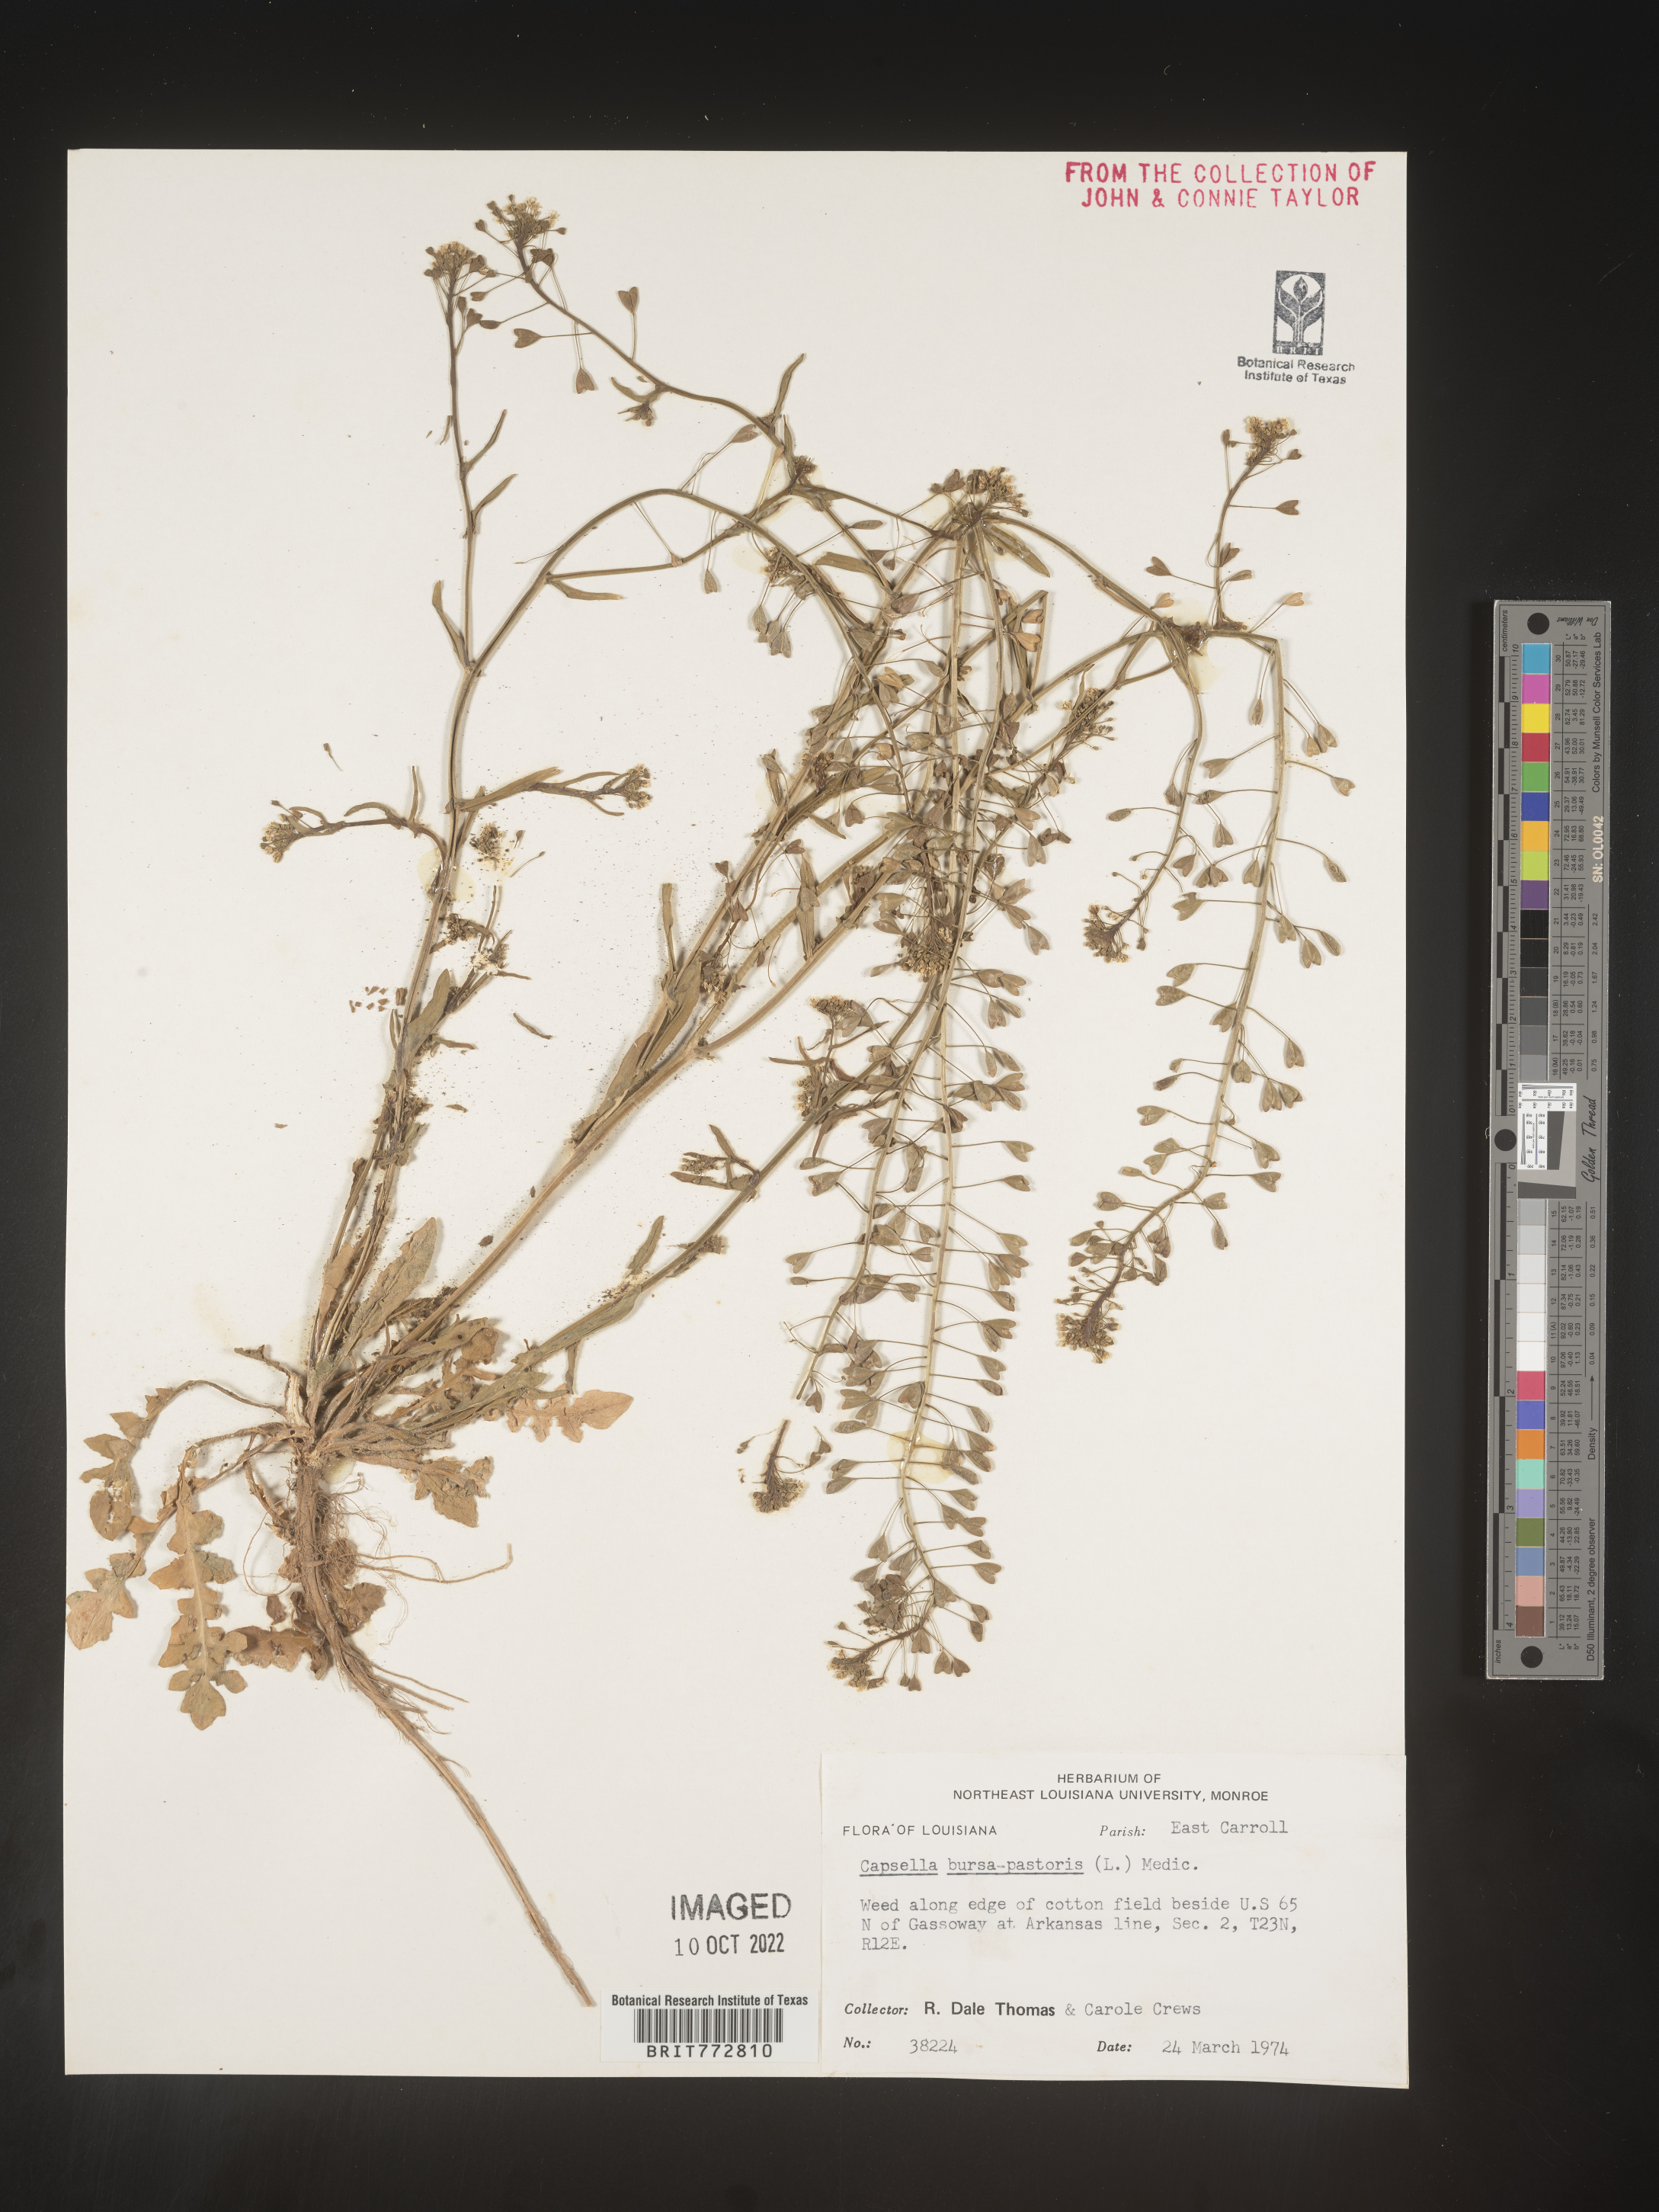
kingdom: Plantae
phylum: Tracheophyta
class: Magnoliopsida
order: Brassicales
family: Brassicaceae
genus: Capsella
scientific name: Capsella bursa-pastoris
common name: Shepherd's purse
